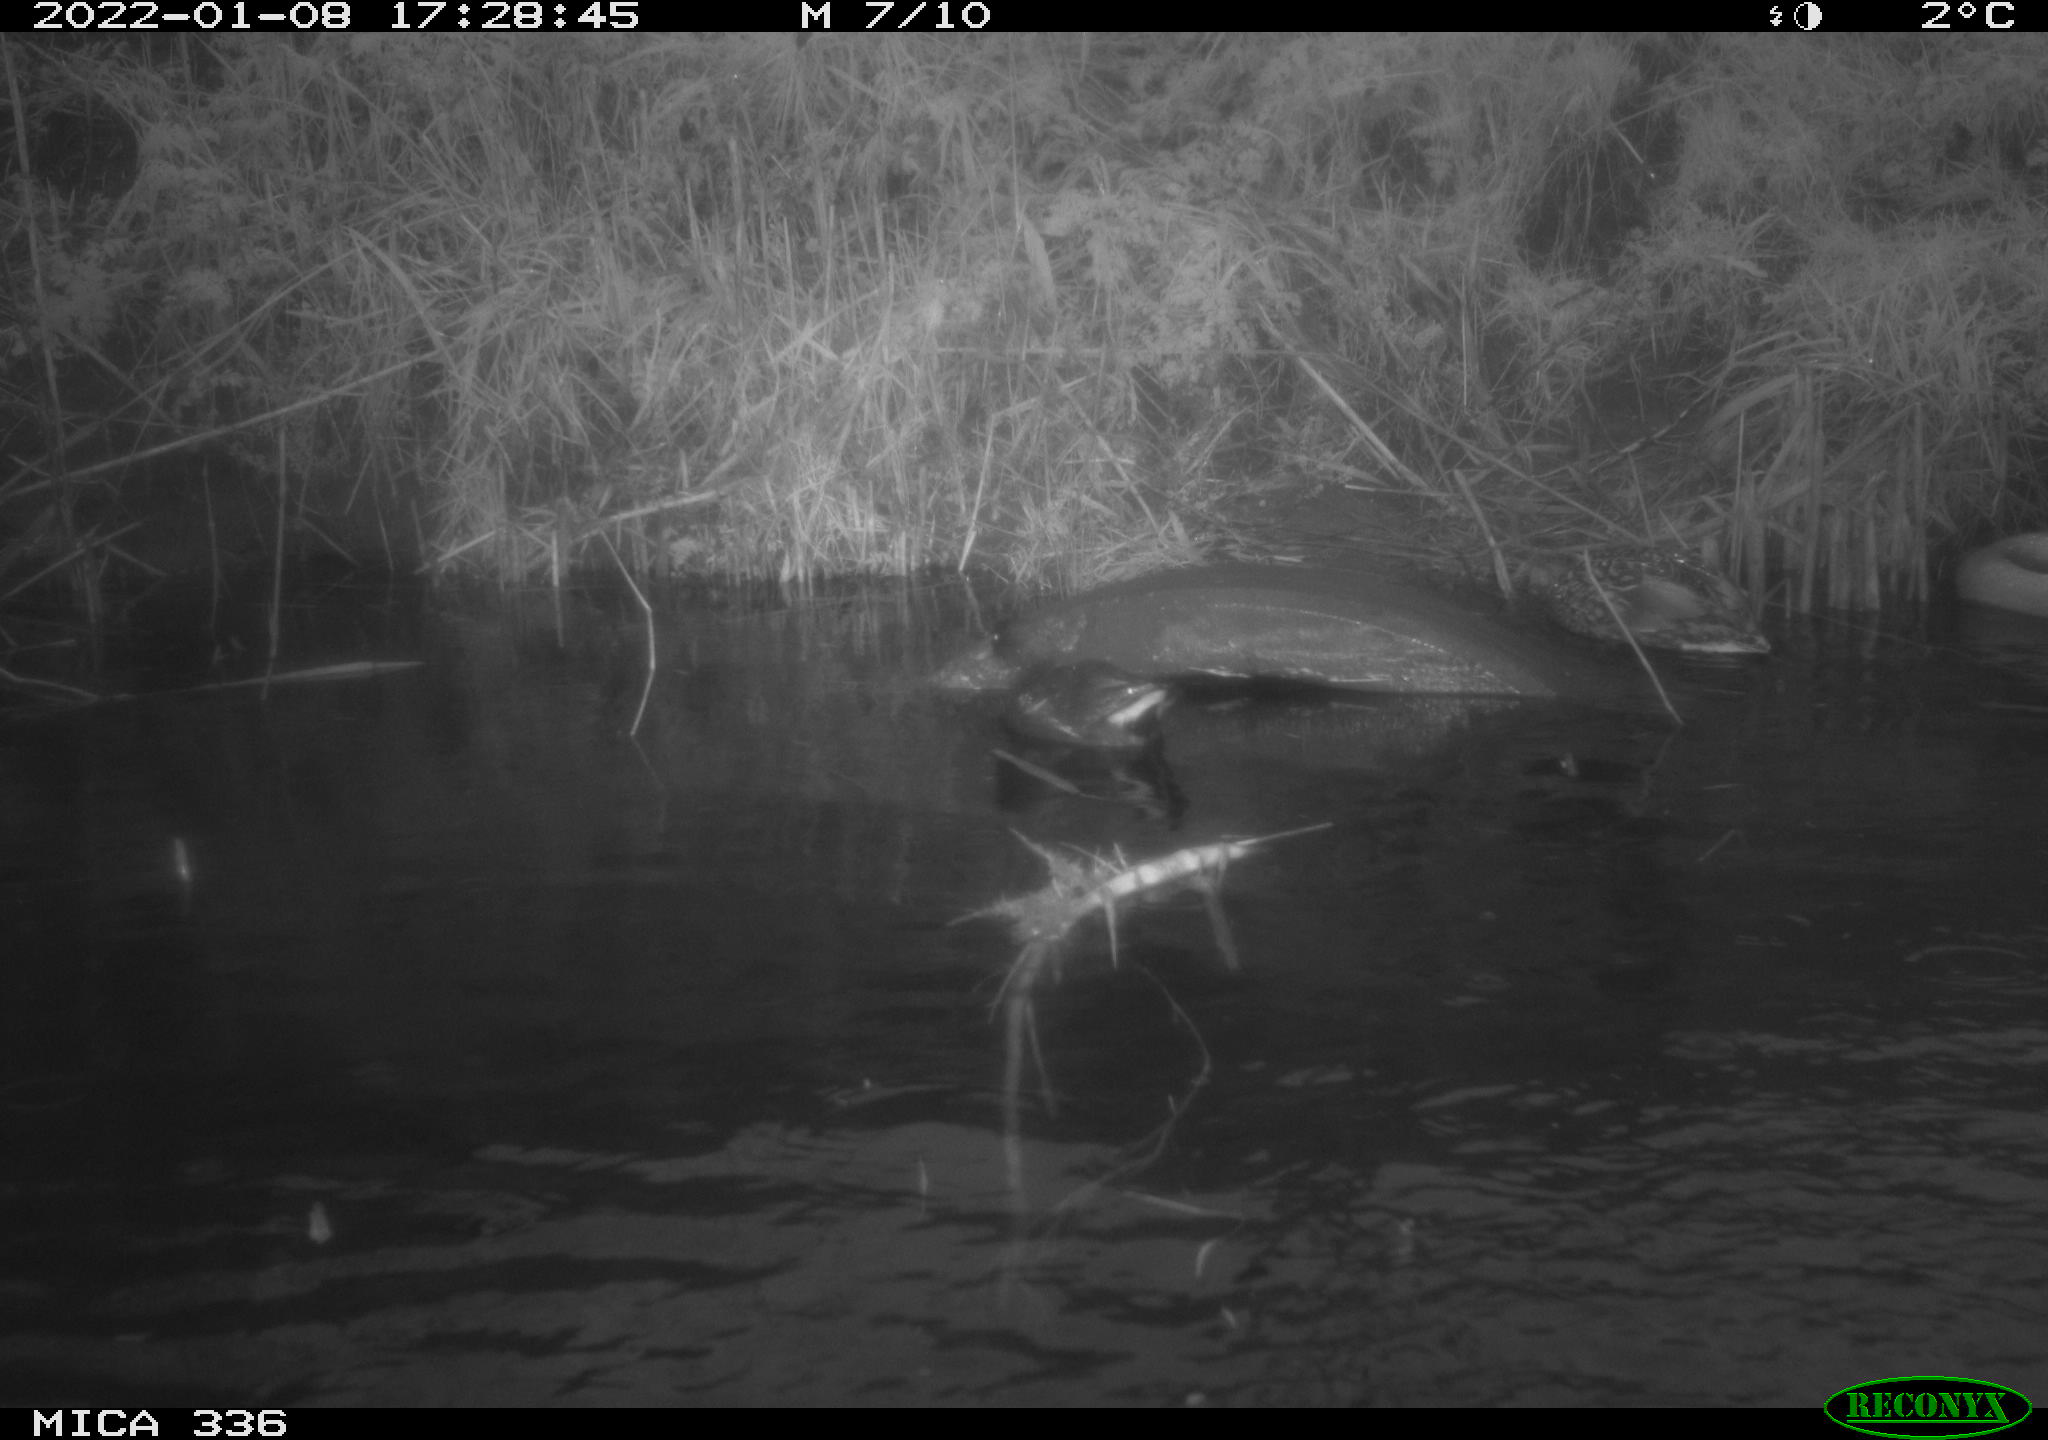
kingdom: Animalia
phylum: Chordata
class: Aves
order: Anseriformes
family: Anatidae
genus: Anas
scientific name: Anas platyrhynchos
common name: Mallard
